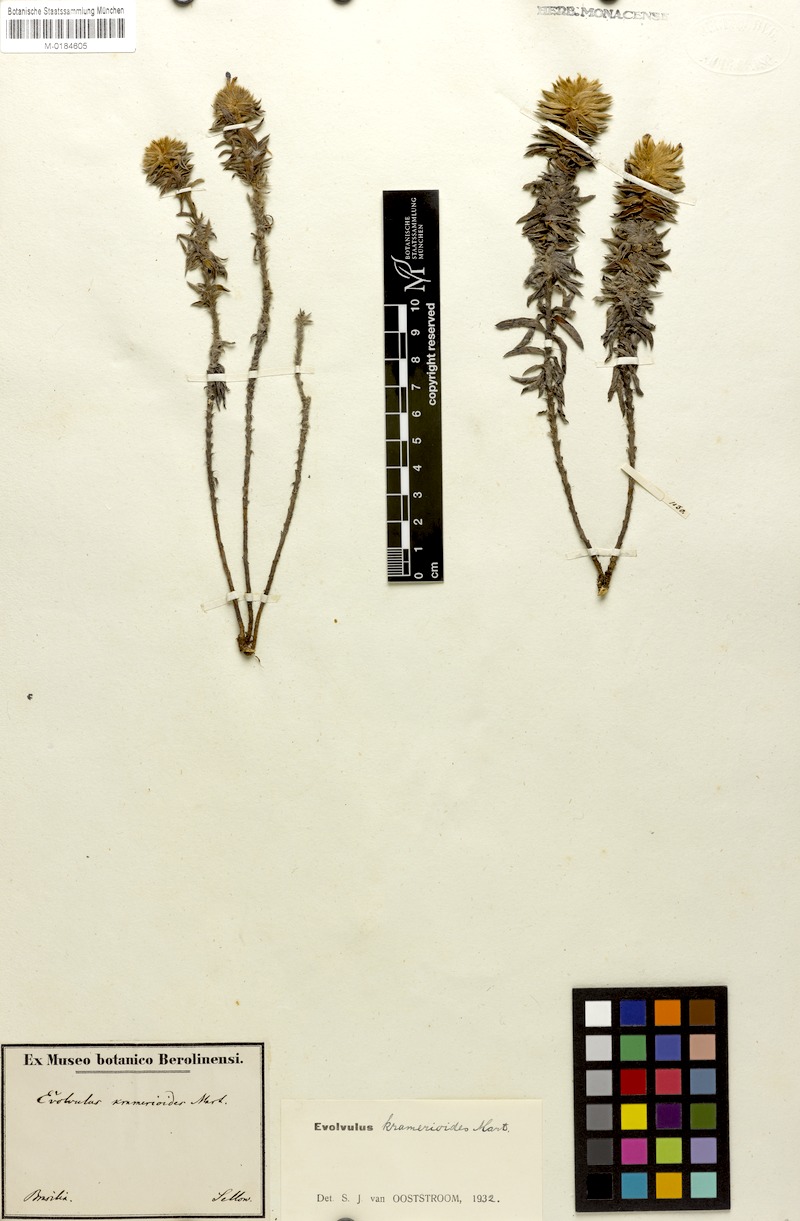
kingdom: Plantae
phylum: Tracheophyta
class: Magnoliopsida
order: Solanales
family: Convolvulaceae
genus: Evolvulus
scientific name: Evolvulus kramerioides
